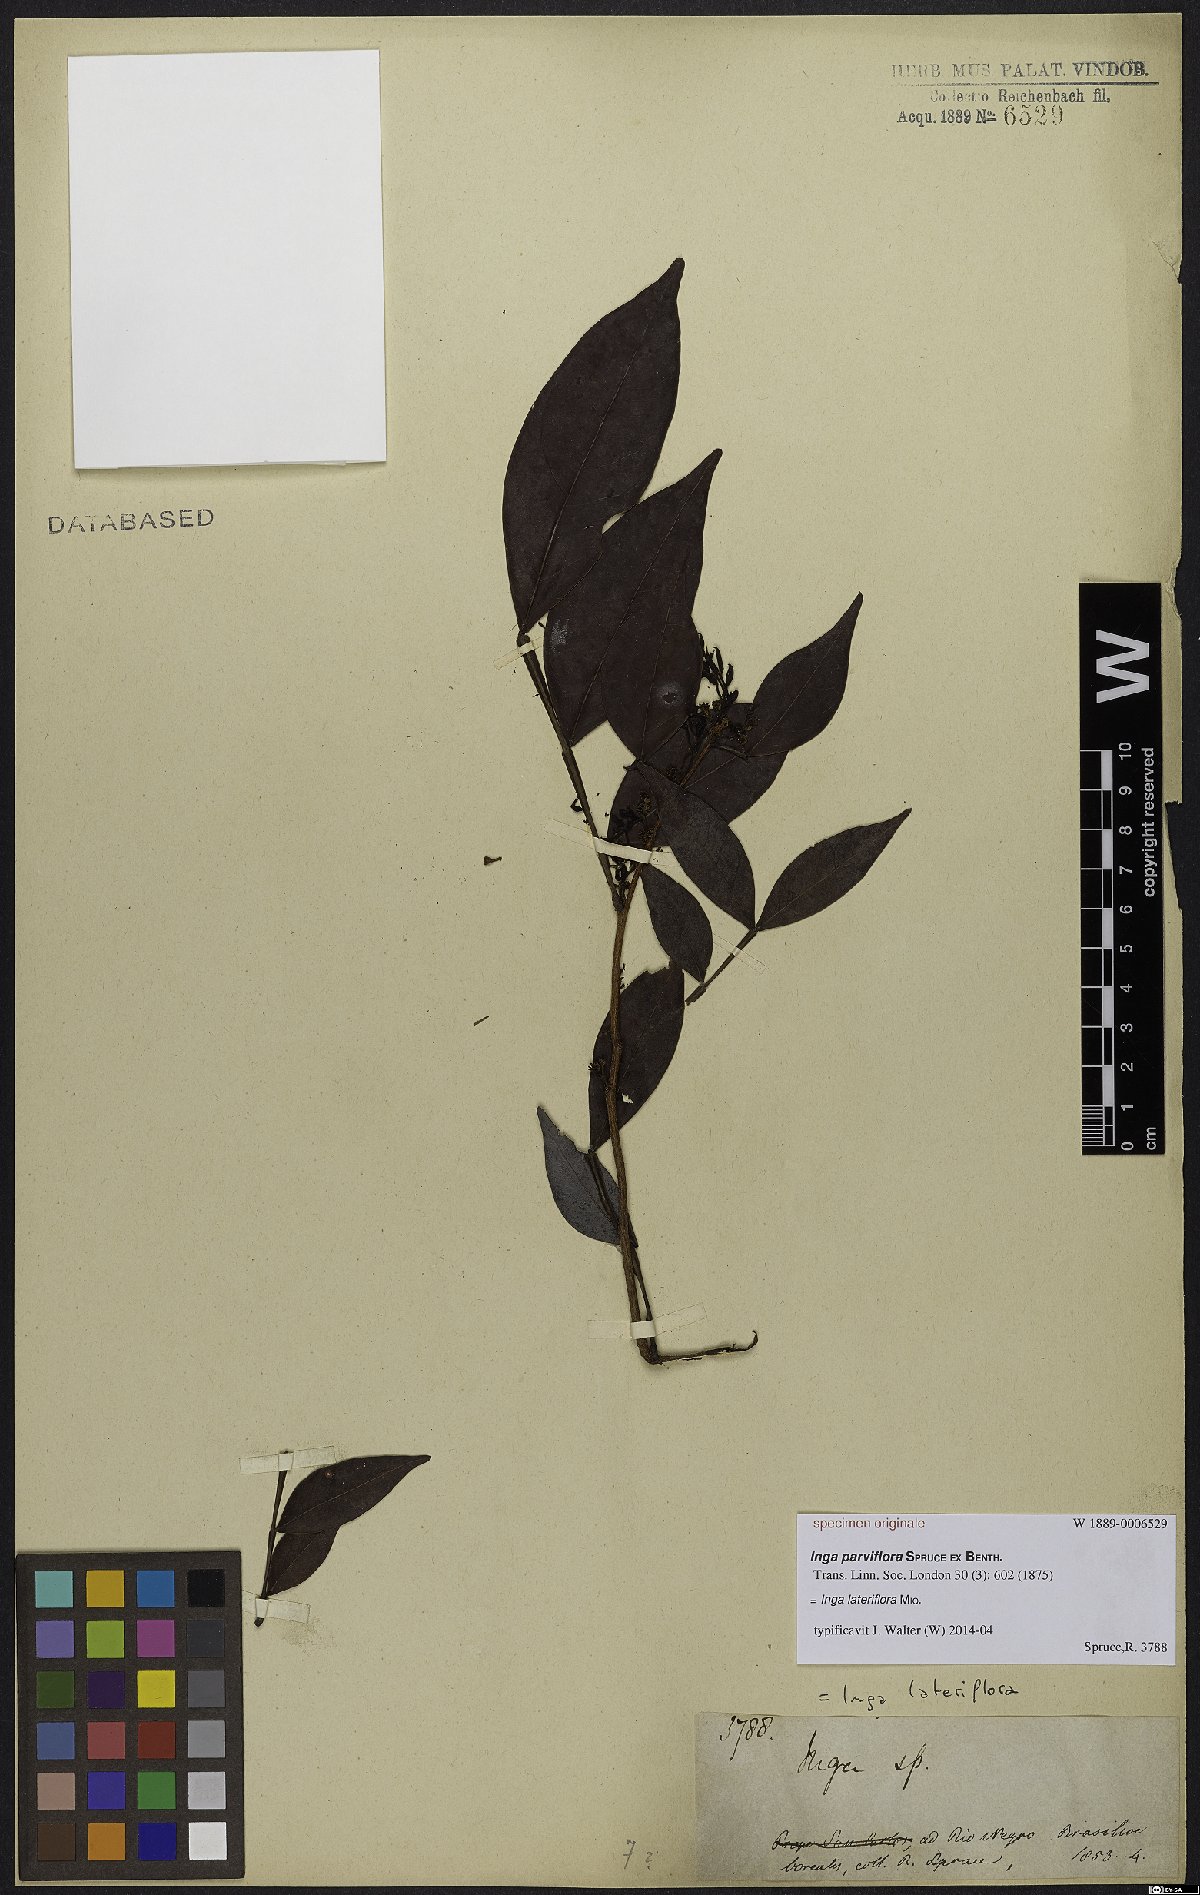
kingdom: Plantae
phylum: Tracheophyta
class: Magnoliopsida
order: Fabales
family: Fabaceae
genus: Inga
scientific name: Inga lateriflora
